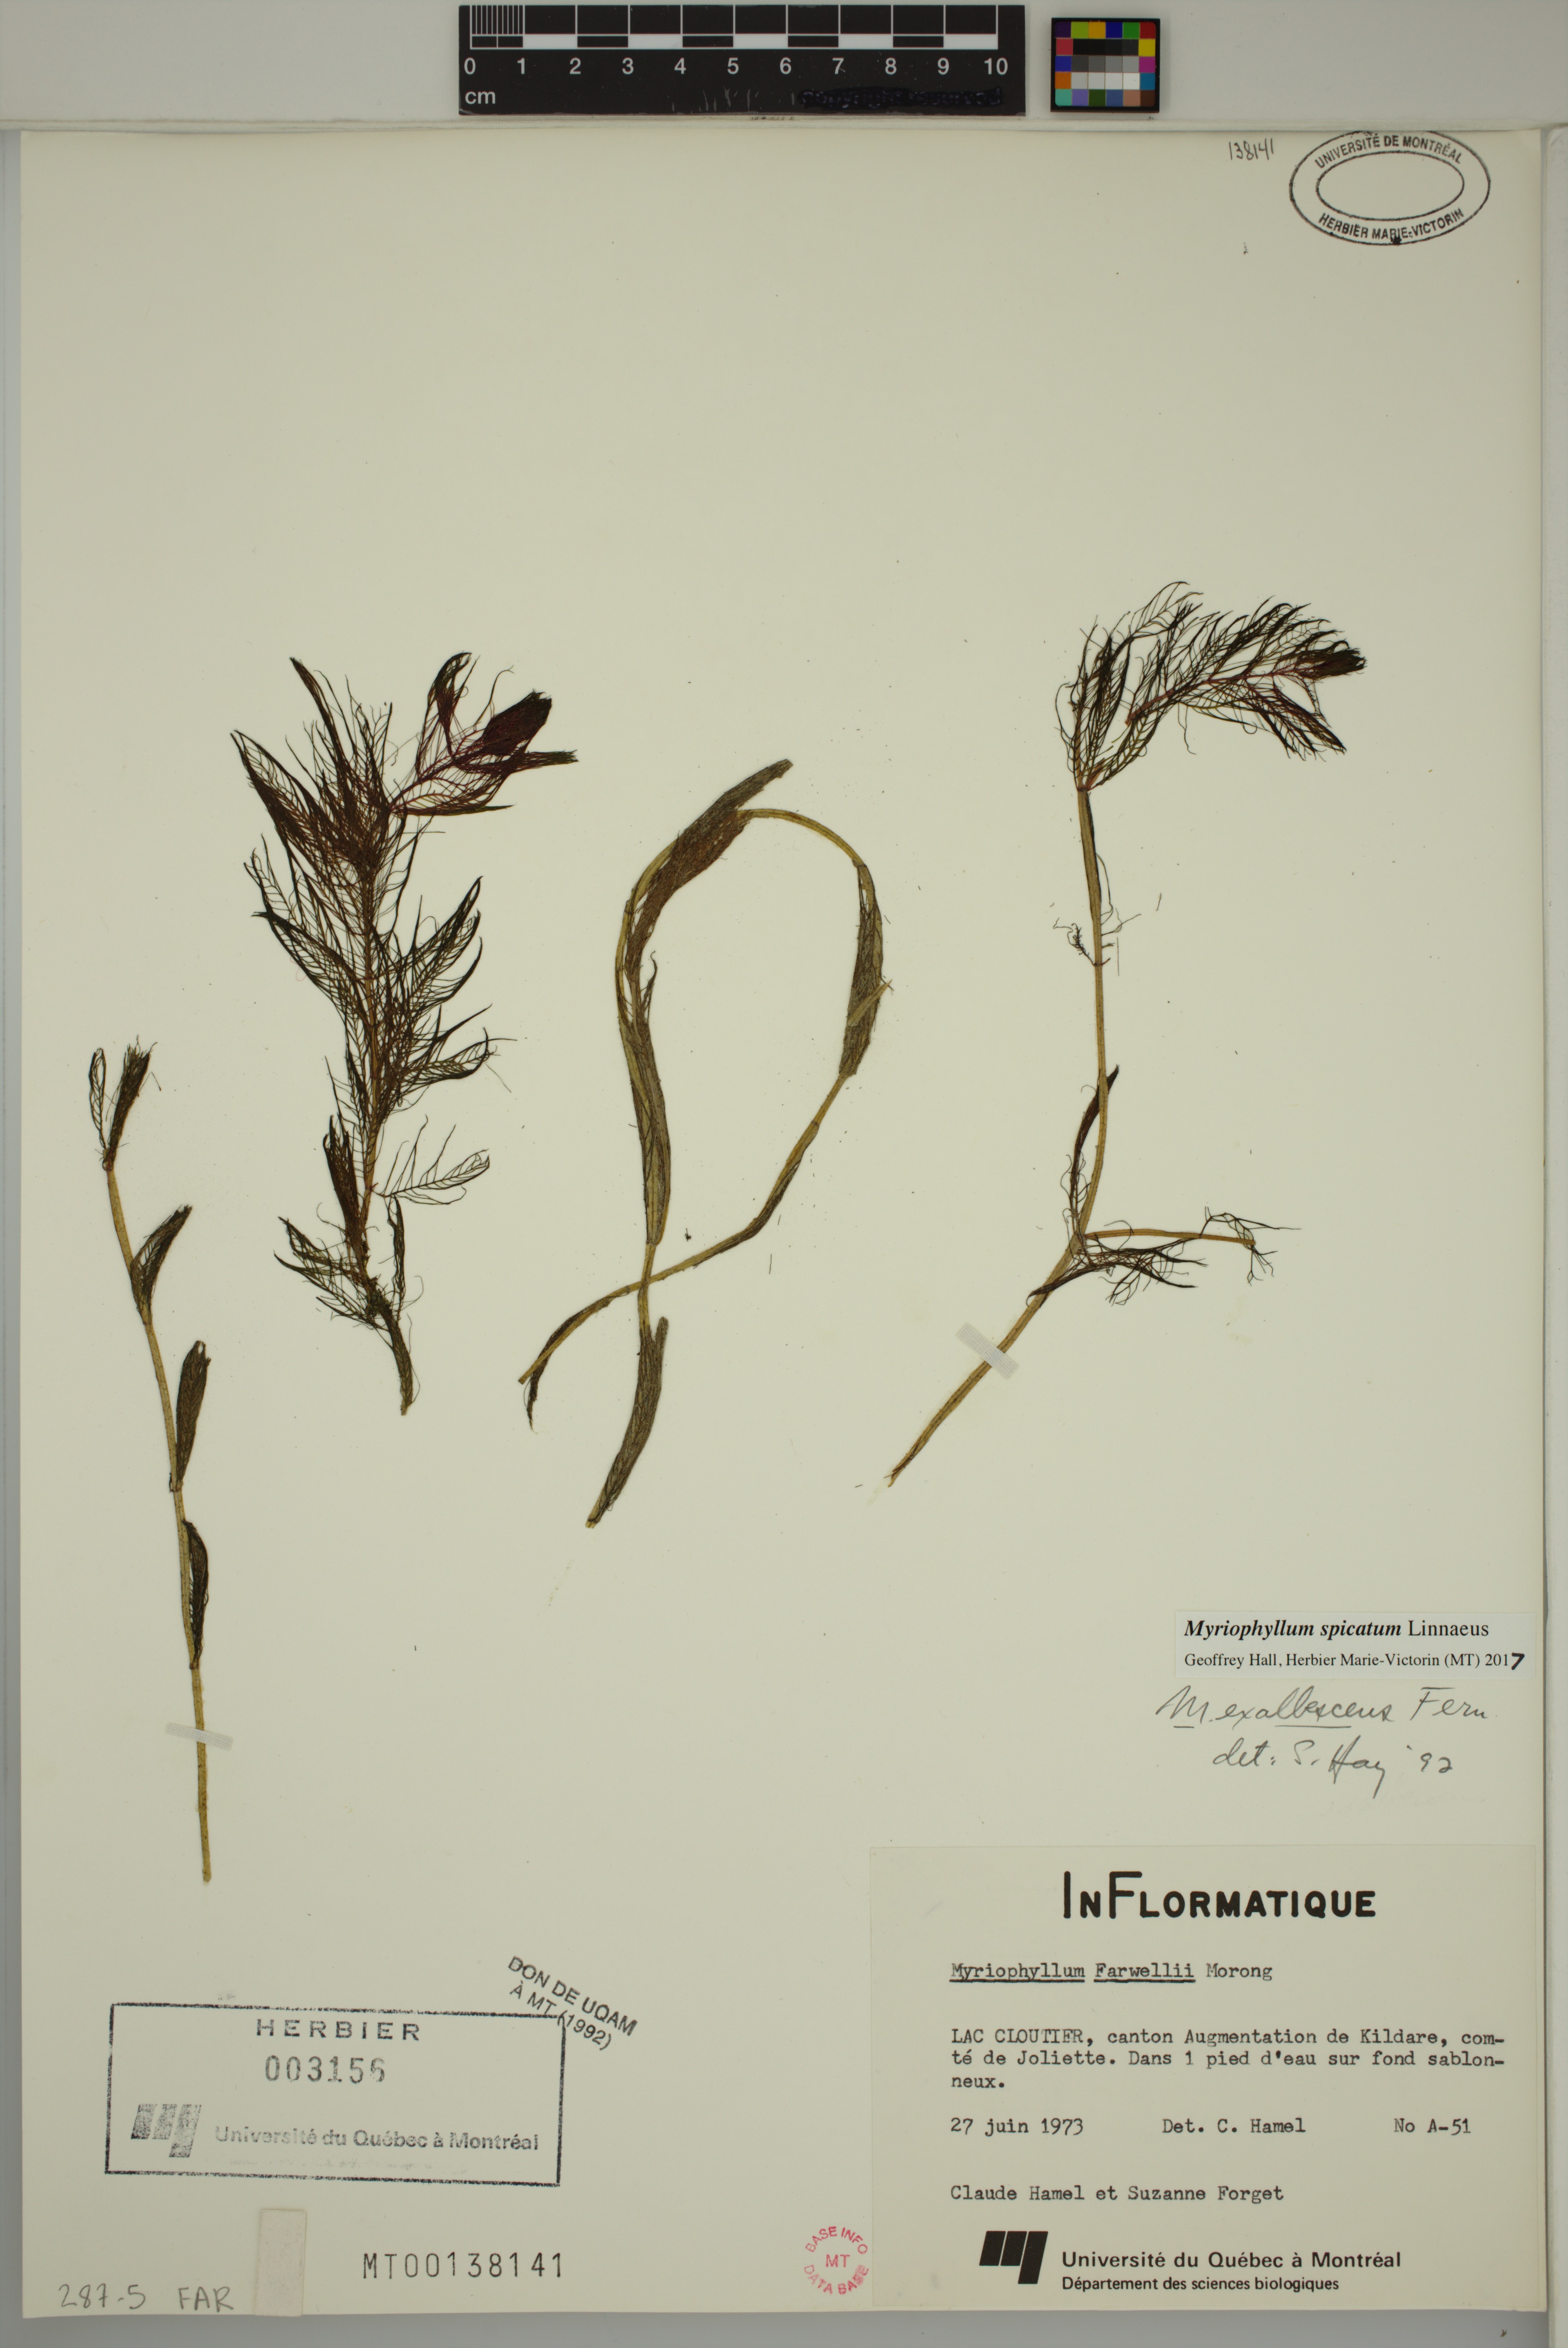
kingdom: Plantae
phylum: Tracheophyta
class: Magnoliopsida
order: Saxifragales
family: Haloragaceae
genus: Myriophyllum
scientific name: Myriophyllum spicatum
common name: Spiked water-milfoil
